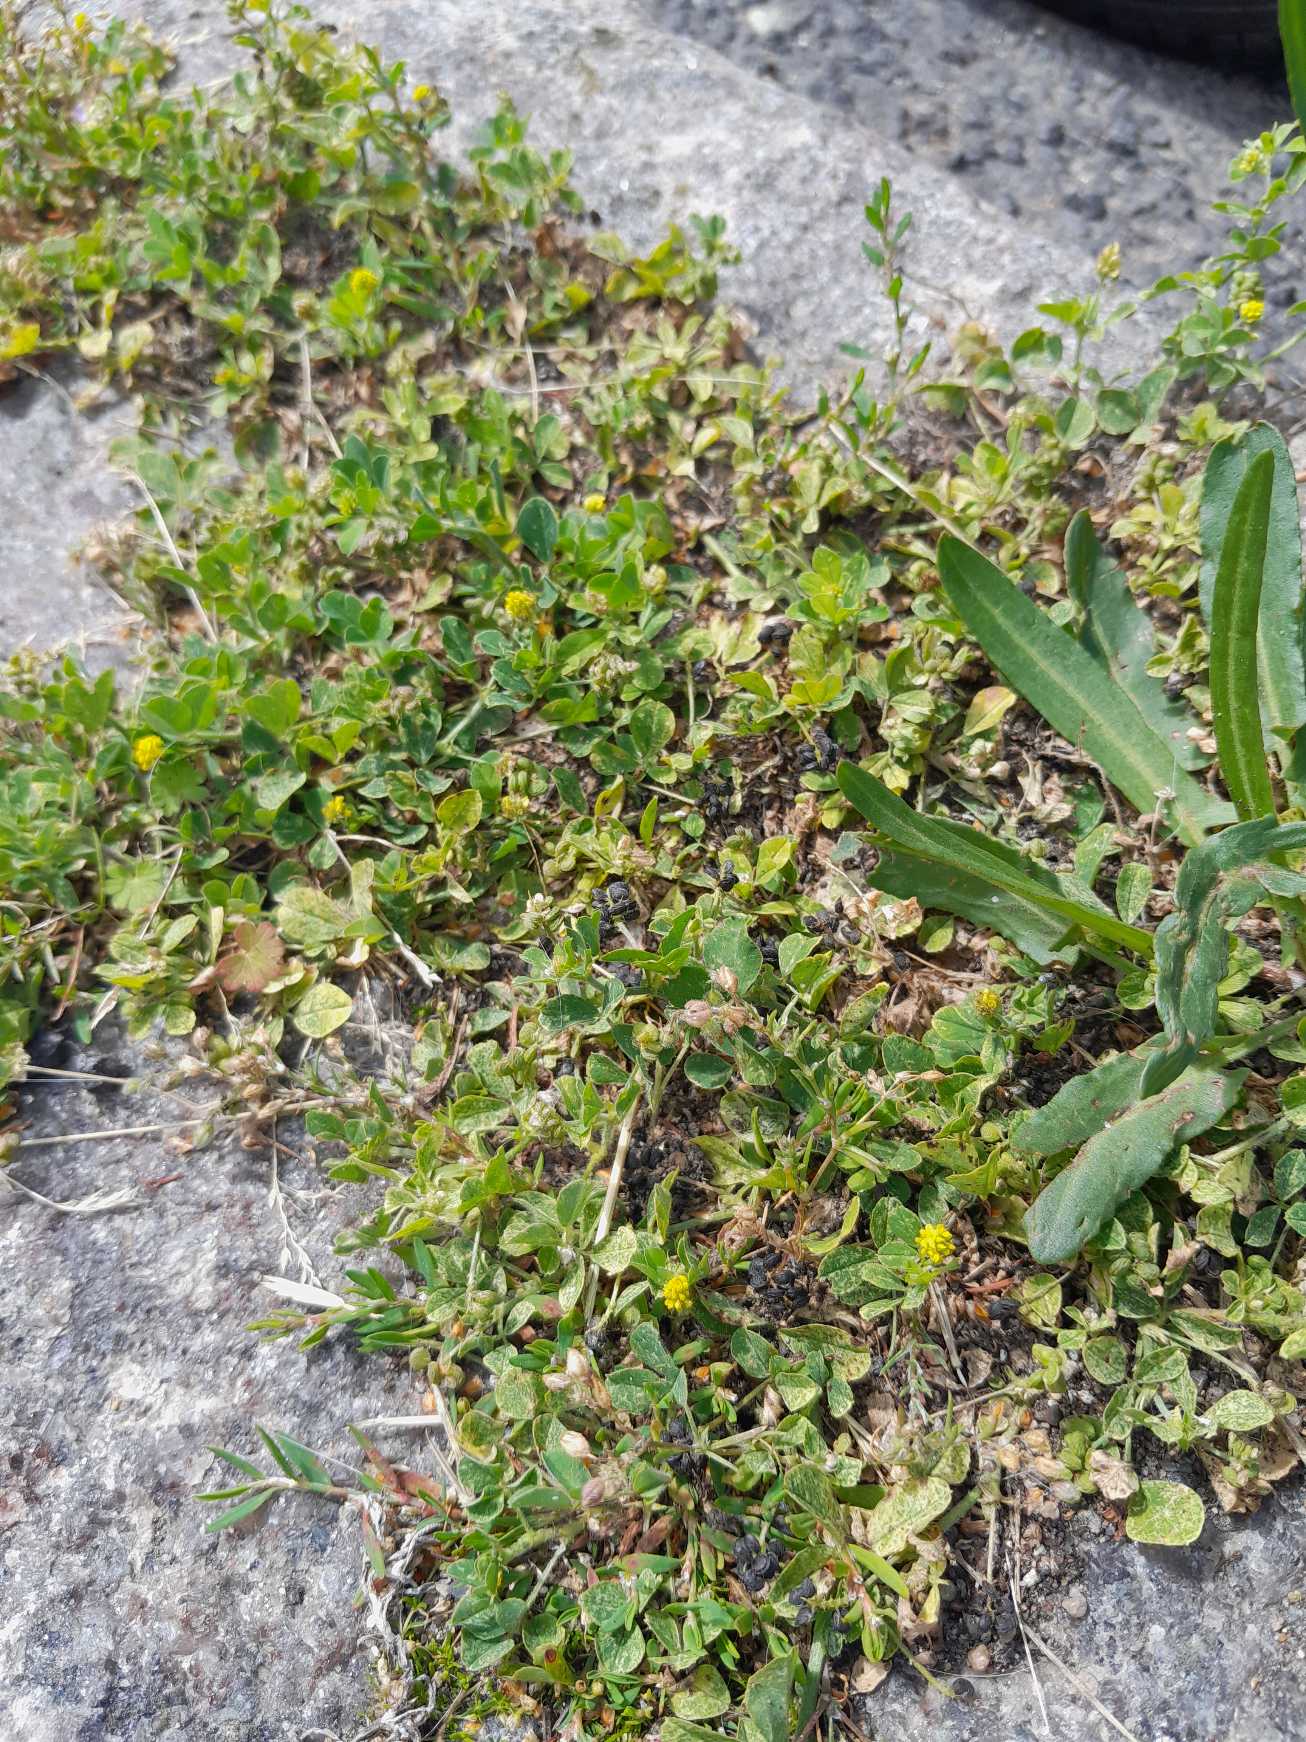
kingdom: Plantae
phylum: Tracheophyta
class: Magnoliopsida
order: Fabales
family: Fabaceae
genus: Medicago
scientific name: Medicago lupulina
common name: Humle-sneglebælg
